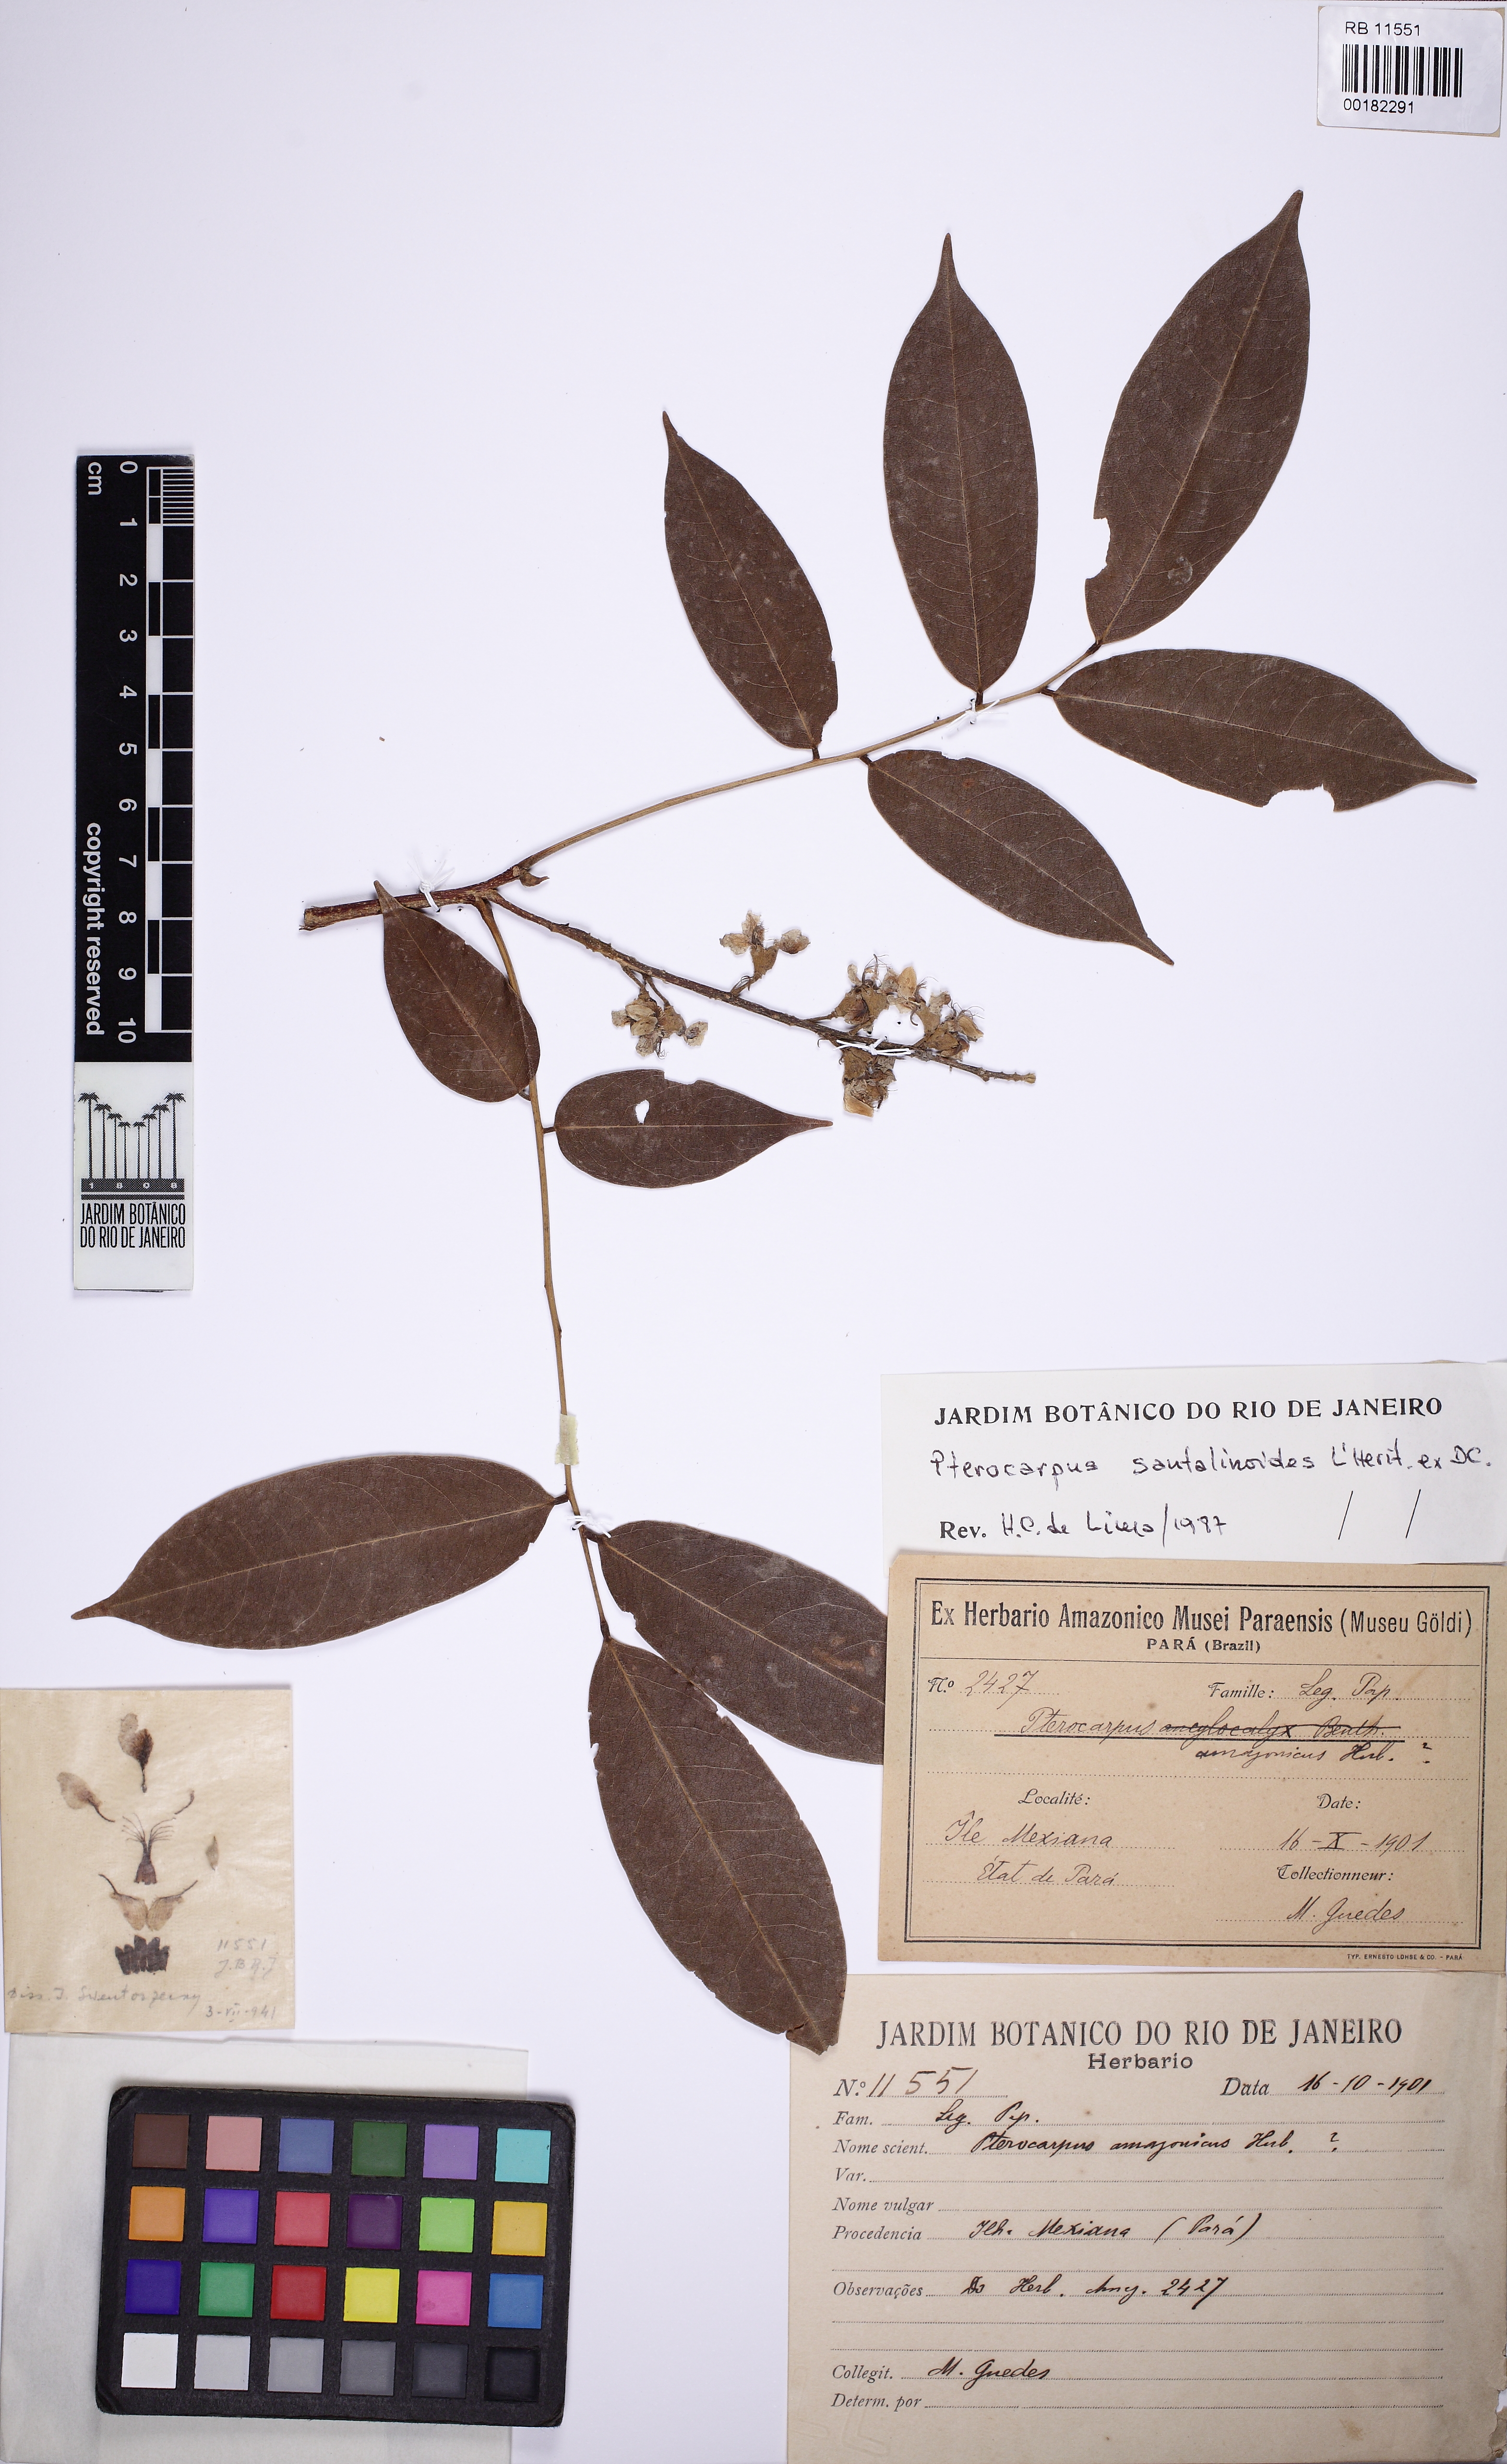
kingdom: Plantae
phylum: Tracheophyta
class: Magnoliopsida
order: Fabales
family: Fabaceae
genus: Pterocarpus
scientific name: Pterocarpus santalinoides
